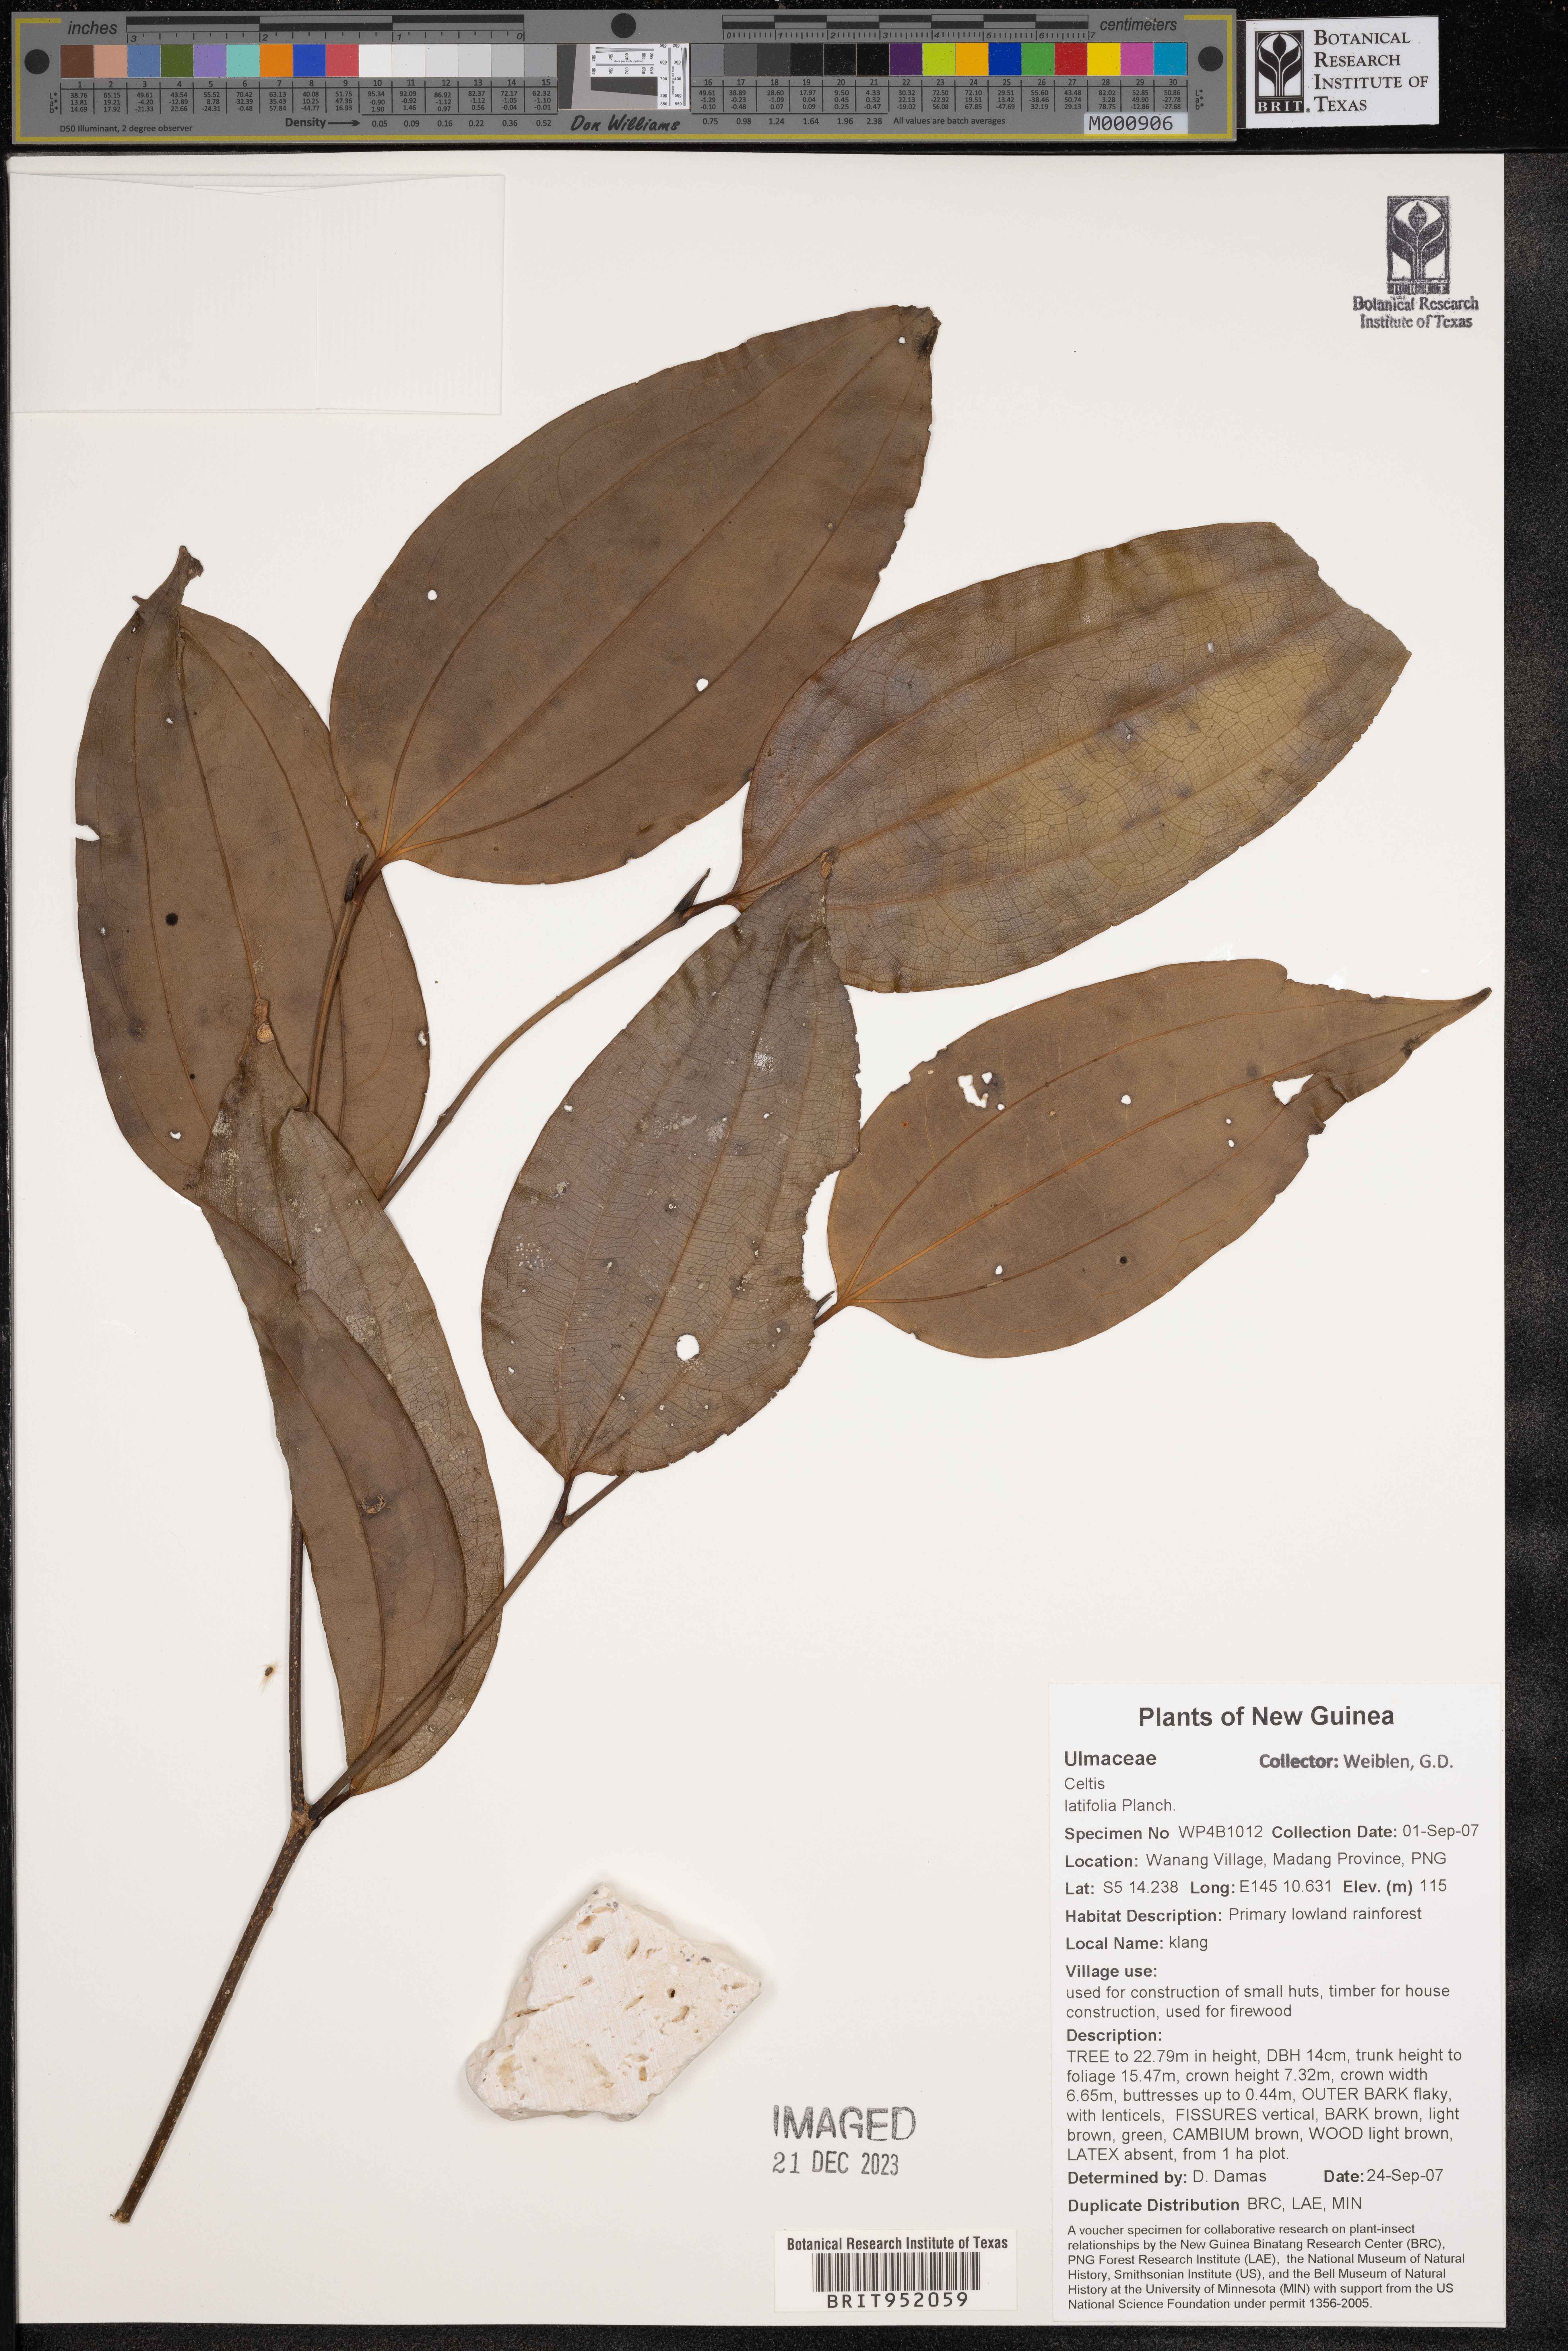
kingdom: Plantae
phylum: Tracheophyta
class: Magnoliopsida
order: Rosales
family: Cannabaceae
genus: Celtis
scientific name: Celtis
